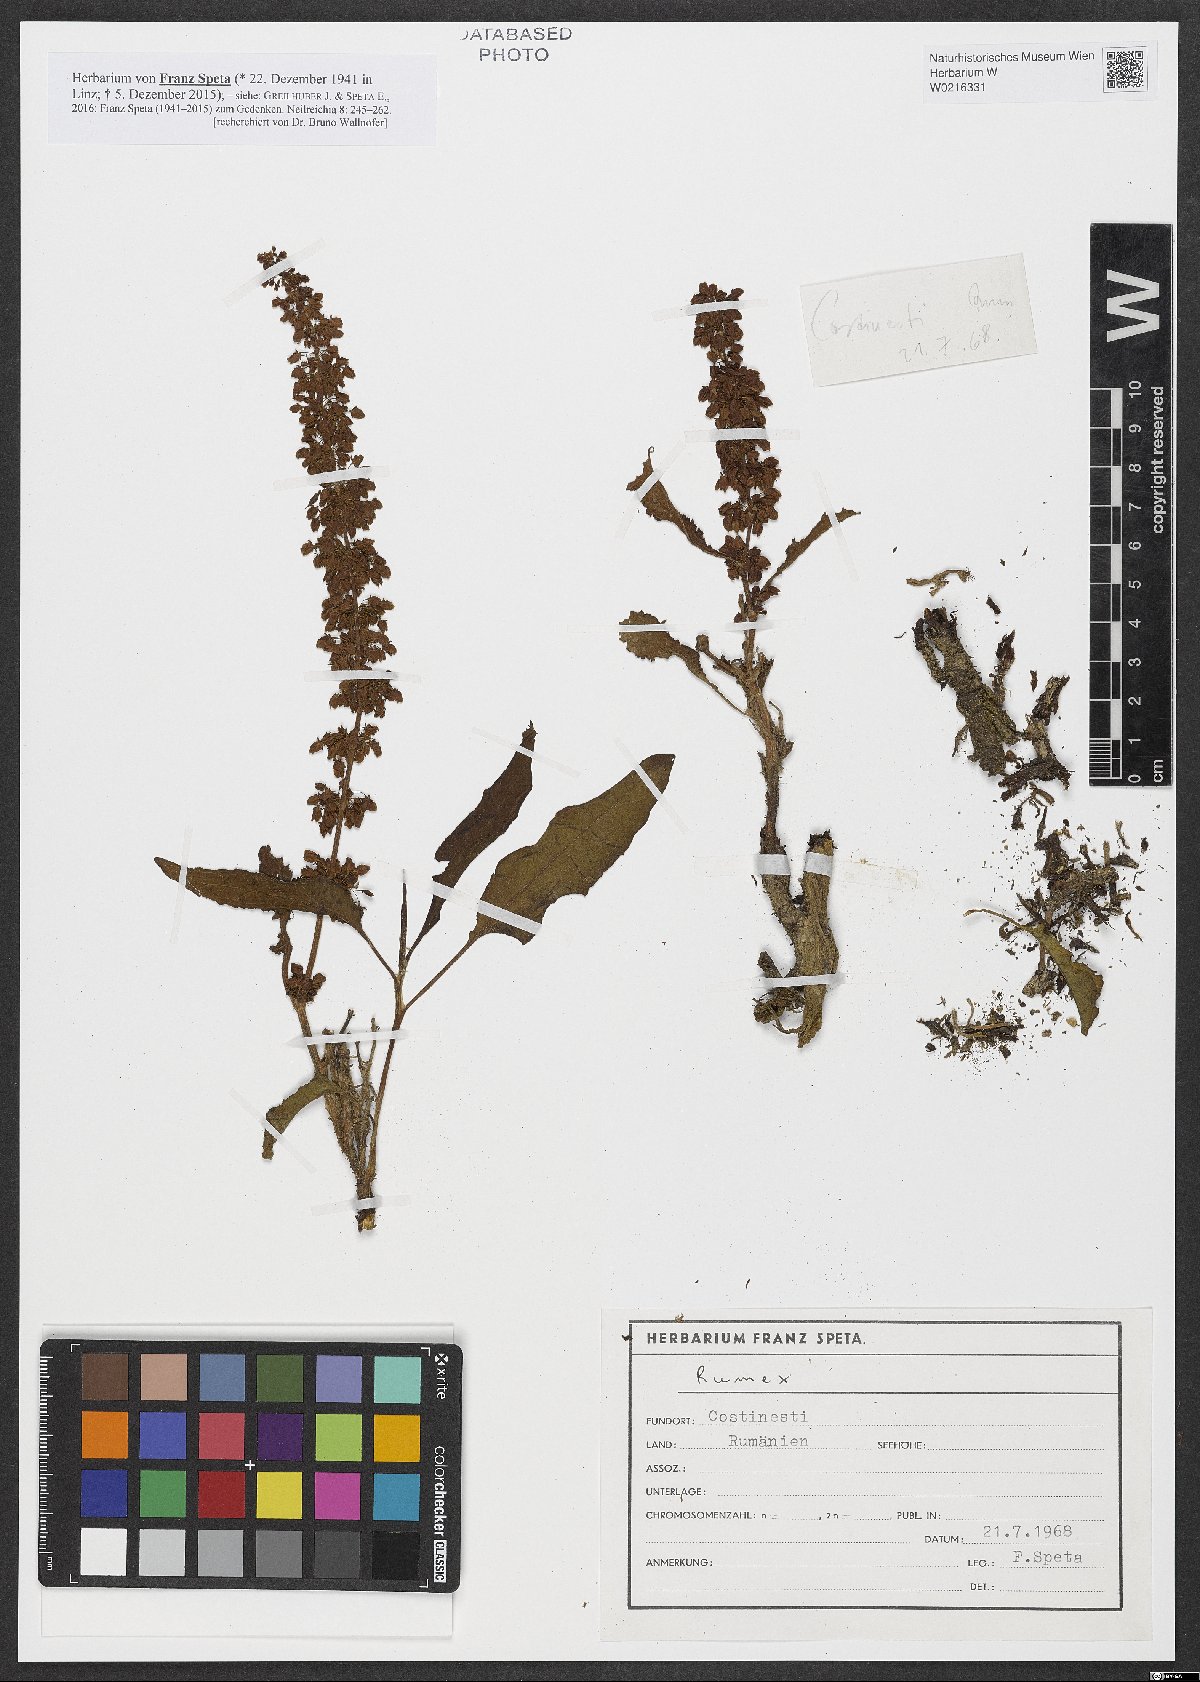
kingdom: Plantae
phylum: Tracheophyta
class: Magnoliopsida
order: Caryophyllales
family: Polygonaceae
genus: Rumex
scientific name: Rumex
